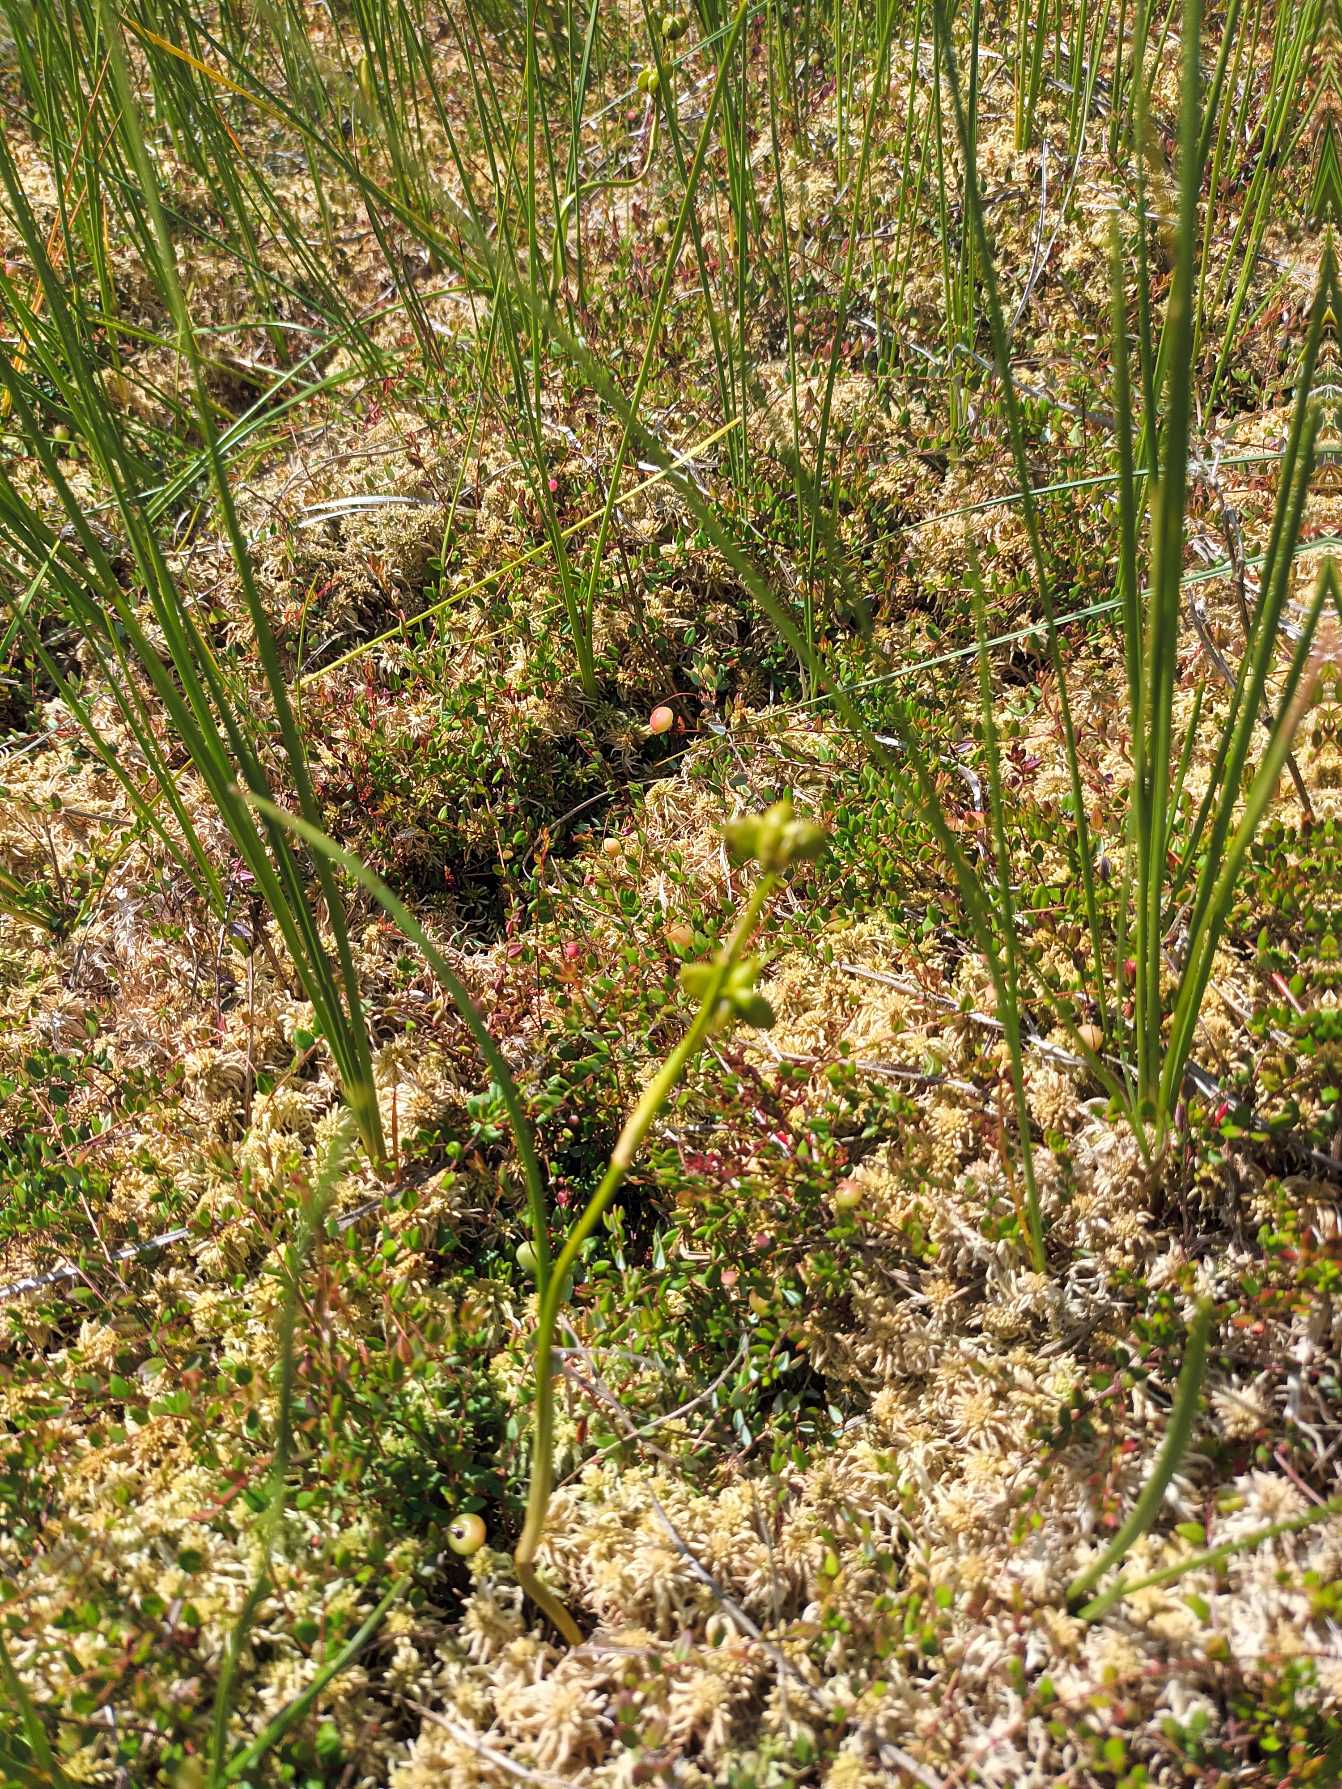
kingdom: Plantae
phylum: Tracheophyta
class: Liliopsida
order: Alismatales
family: Scheuchzeriaceae
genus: Scheuchzeria
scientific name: Scheuchzeria palustris
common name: Blomstersiv
